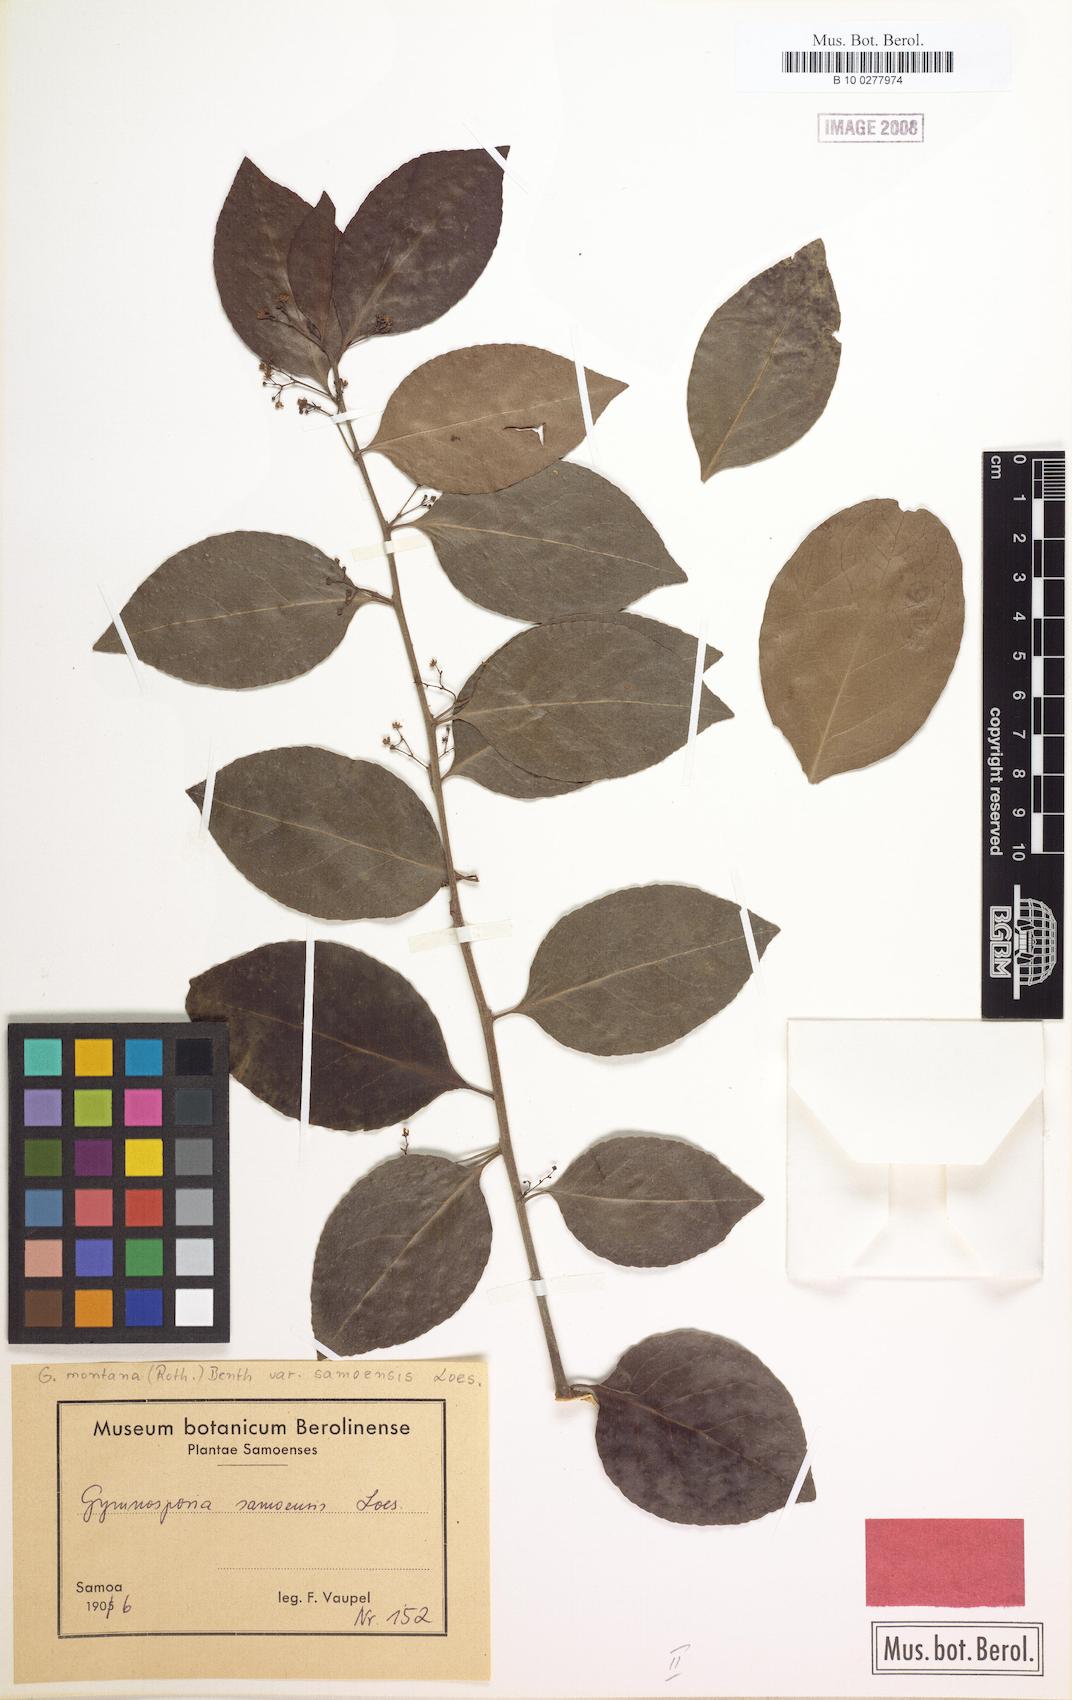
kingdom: Plantae
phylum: Tracheophyta
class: Magnoliopsida
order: Celastrales
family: Celastraceae
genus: Gymnosporia
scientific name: Gymnosporia vitiensis
